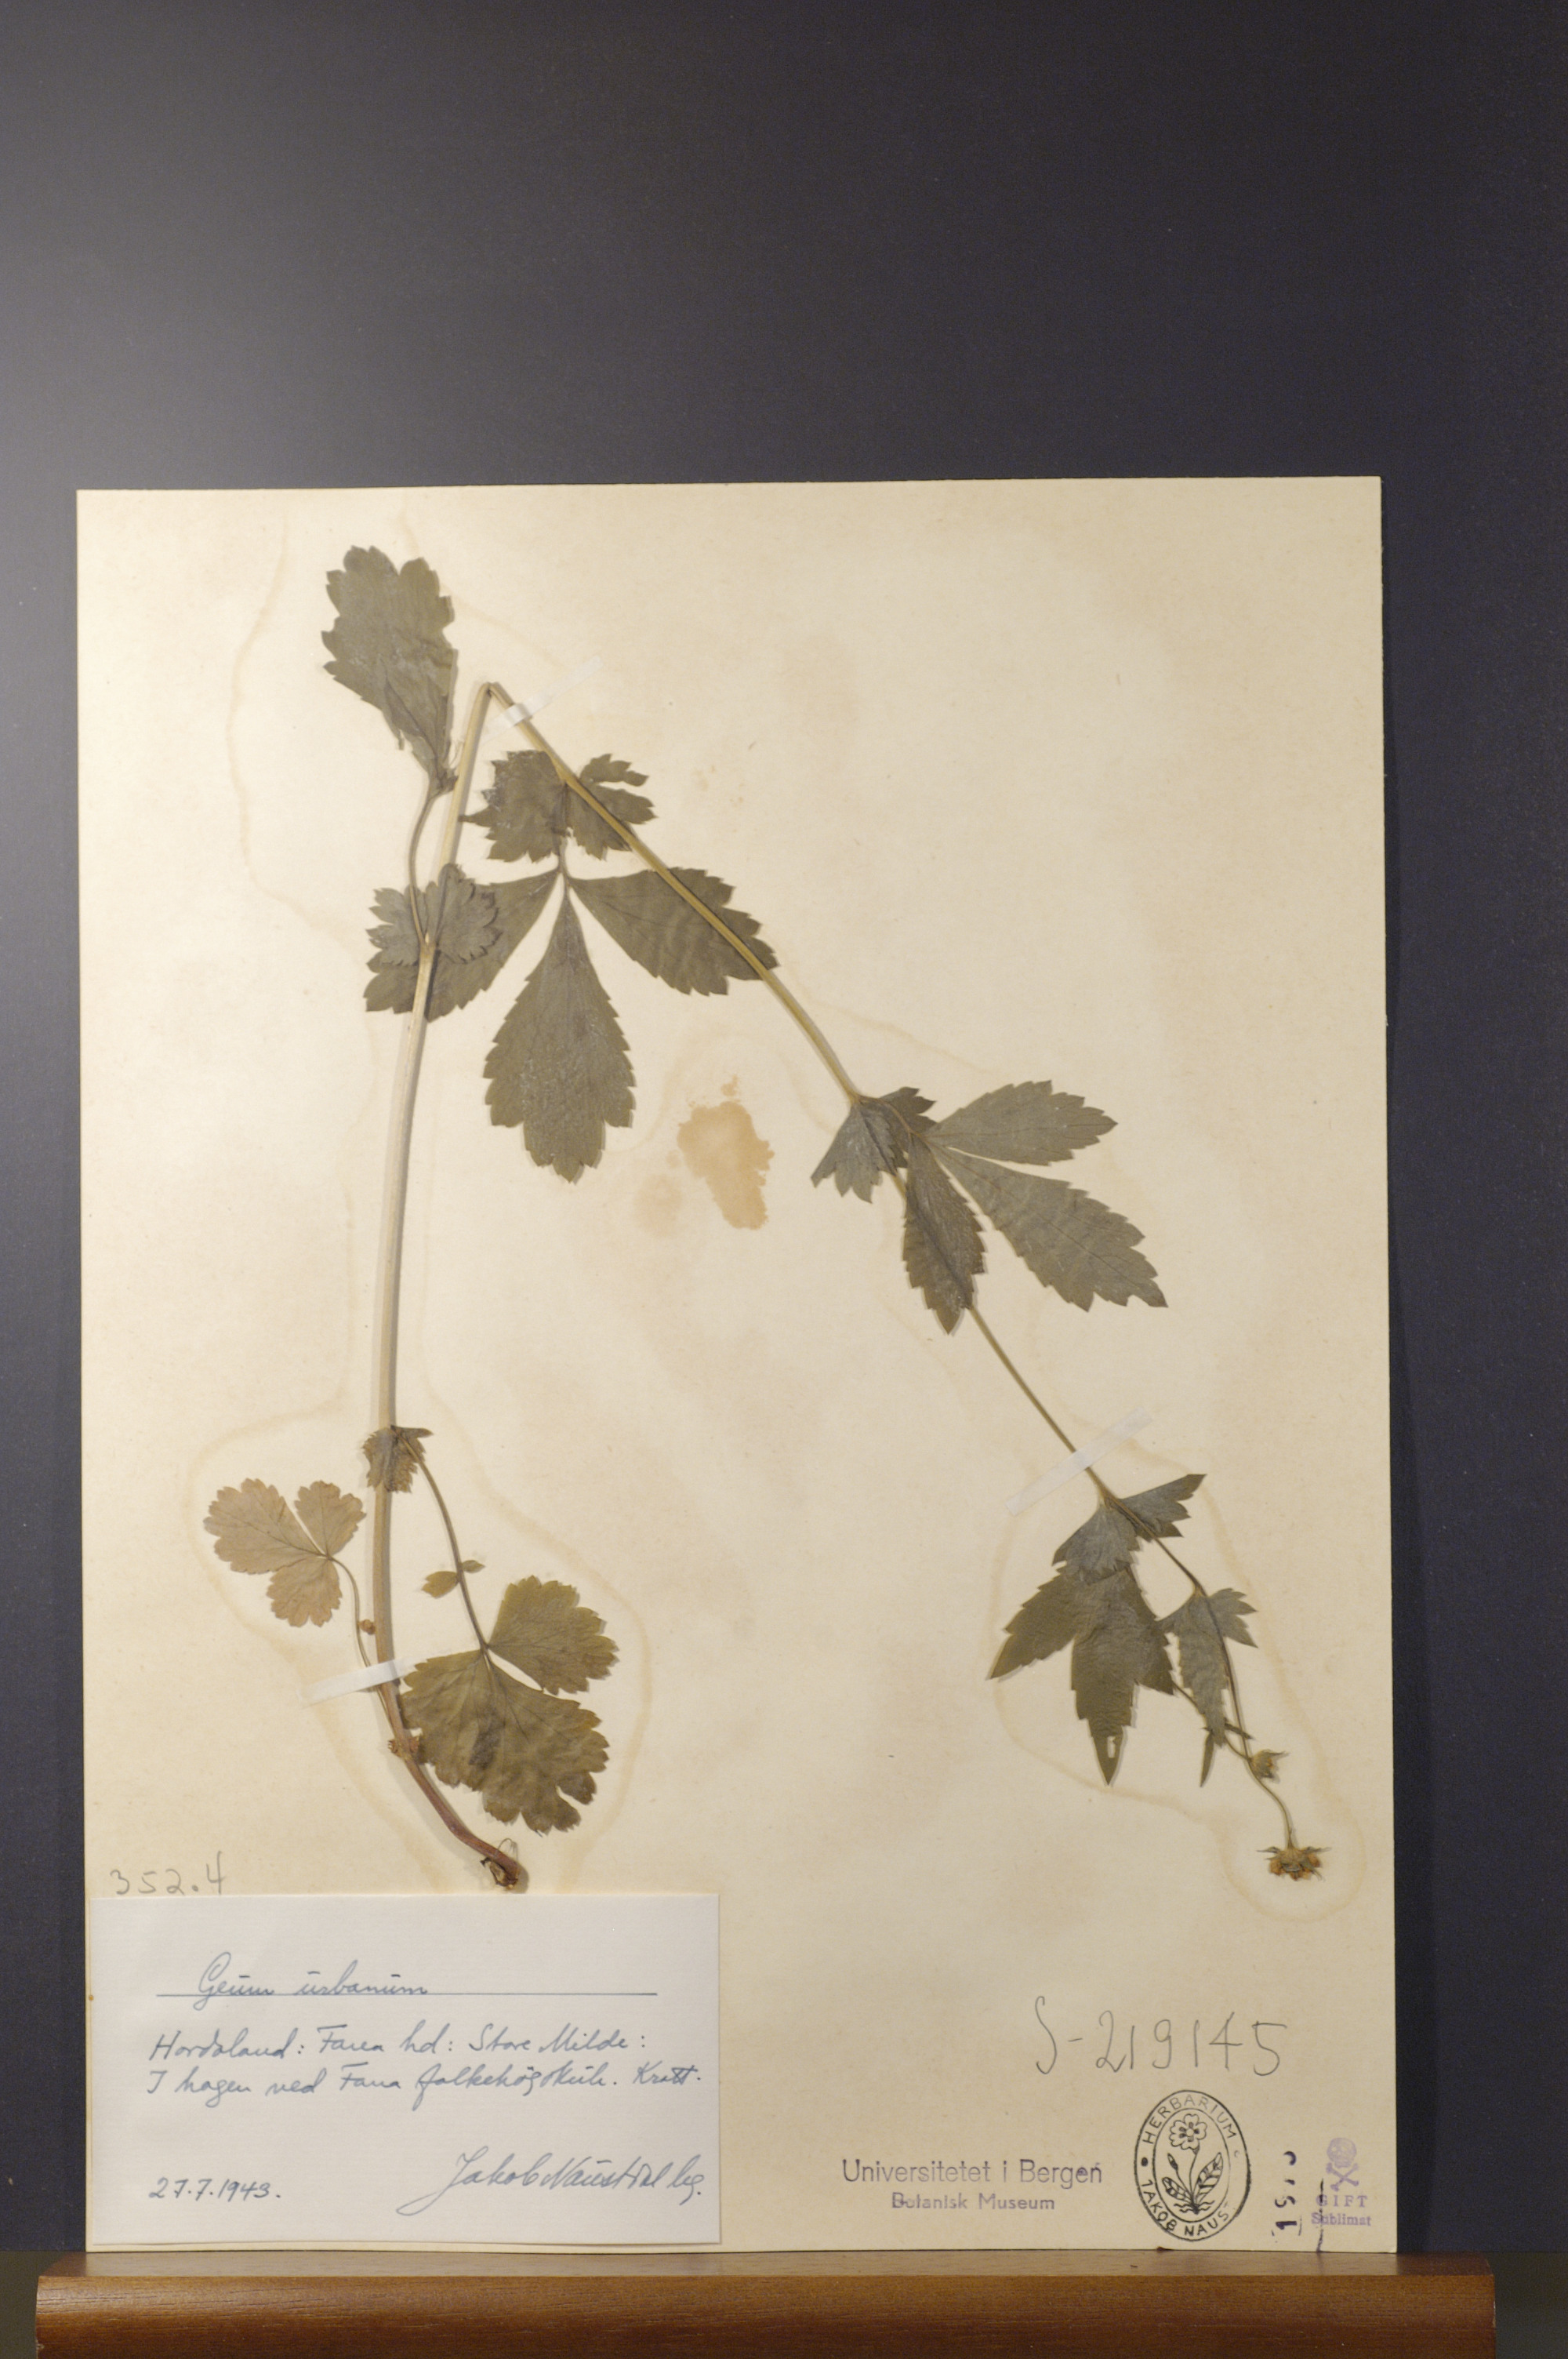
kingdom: Plantae
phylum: Tracheophyta
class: Magnoliopsida
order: Rosales
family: Rosaceae
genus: Geum
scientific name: Geum urbanum
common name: Wood avens
